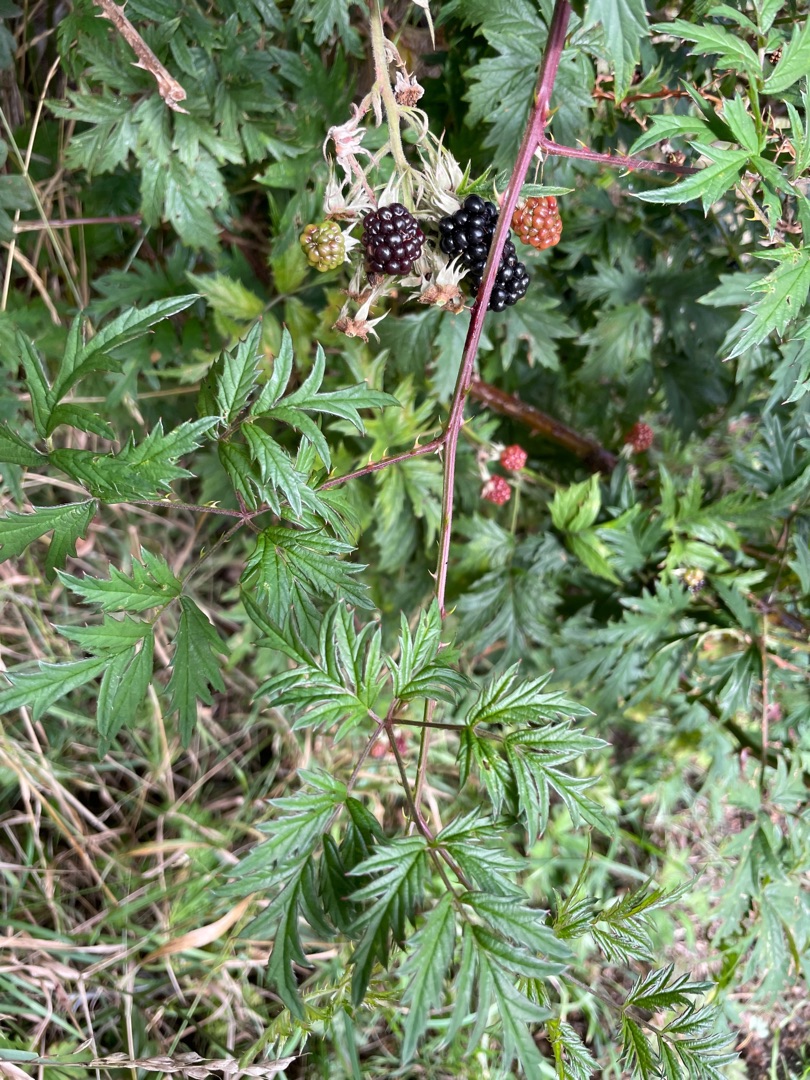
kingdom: Plantae
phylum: Tracheophyta
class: Magnoliopsida
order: Rosales
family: Rosaceae
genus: Rubus
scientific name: Rubus laciniatus
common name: Fliget brombær
